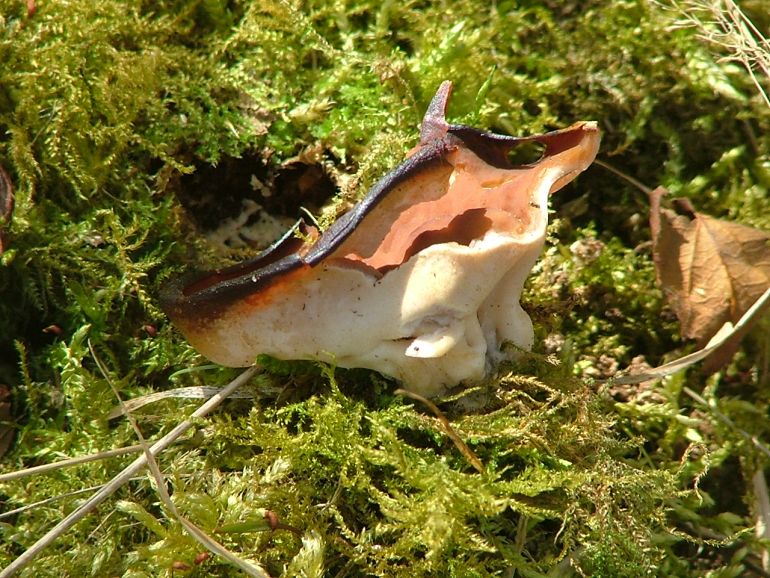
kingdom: Fungi
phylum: Ascomycota
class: Pezizomycetes
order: Pezizales
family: Discinaceae
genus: Discina
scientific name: Discina ancilis
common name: udbredt stenmorkel
